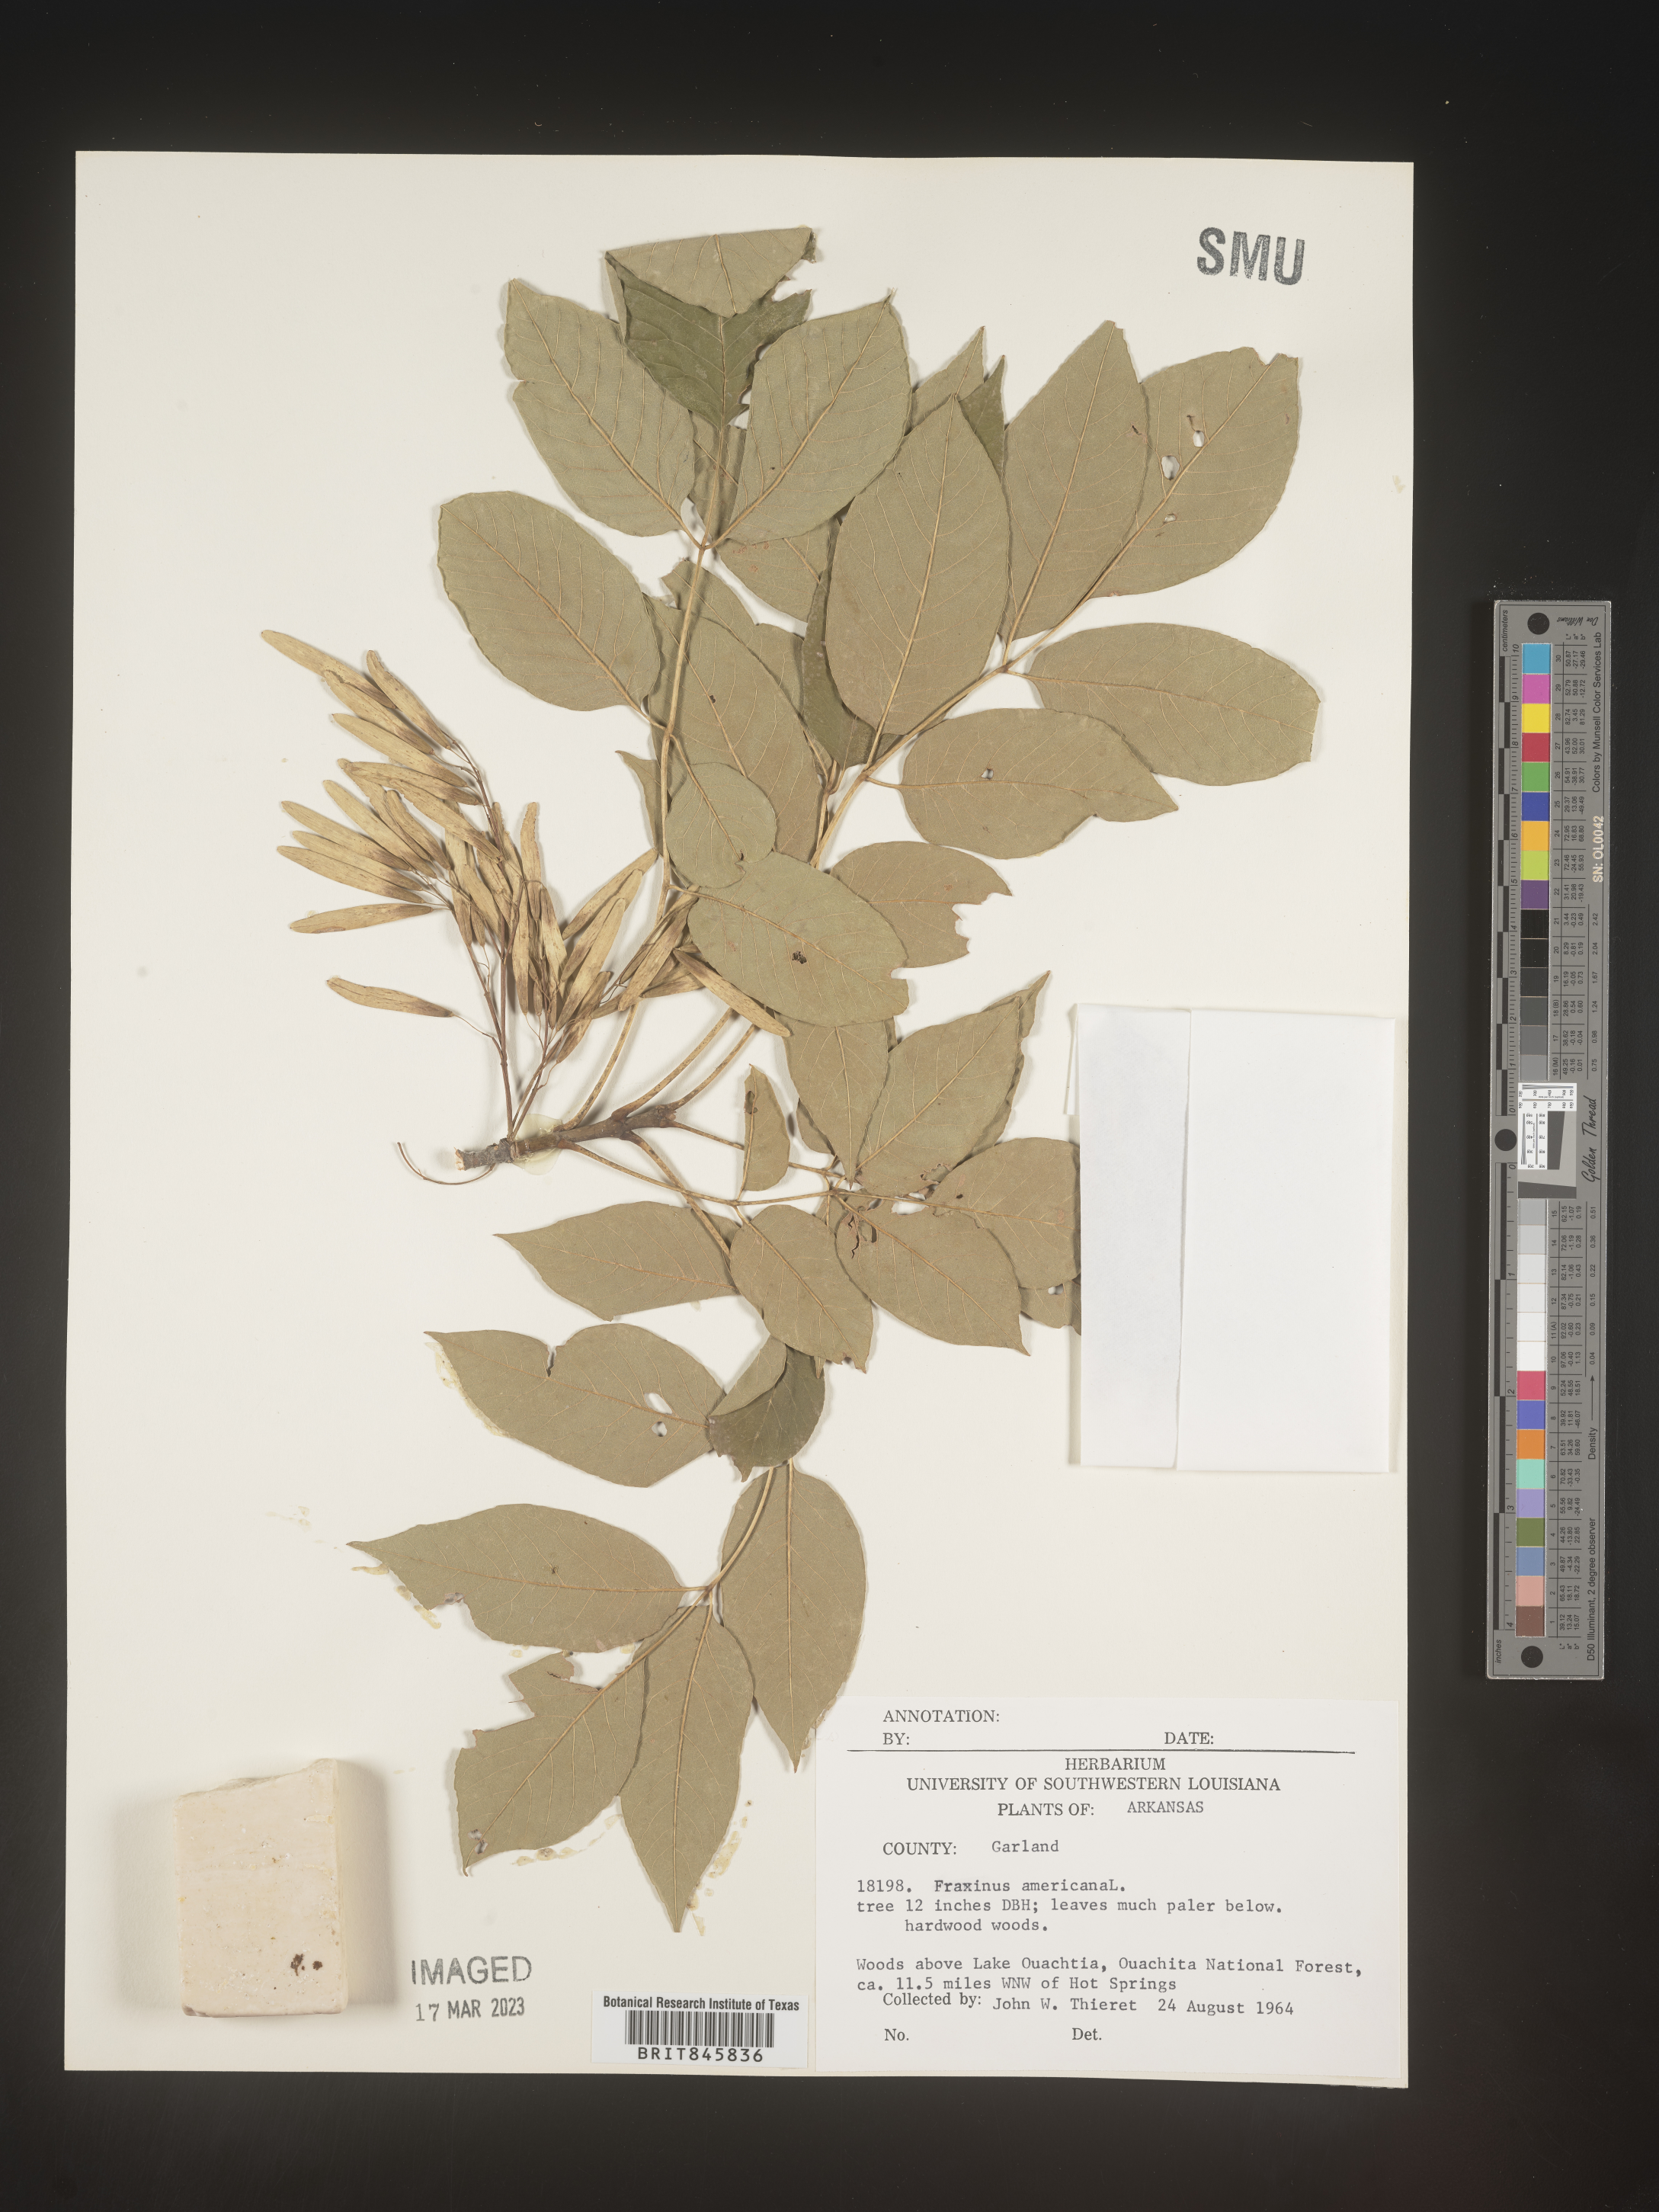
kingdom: Plantae
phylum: Tracheophyta
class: Magnoliopsida
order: Lamiales
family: Oleaceae
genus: Fraxinus
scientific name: Fraxinus americana
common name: White ash
